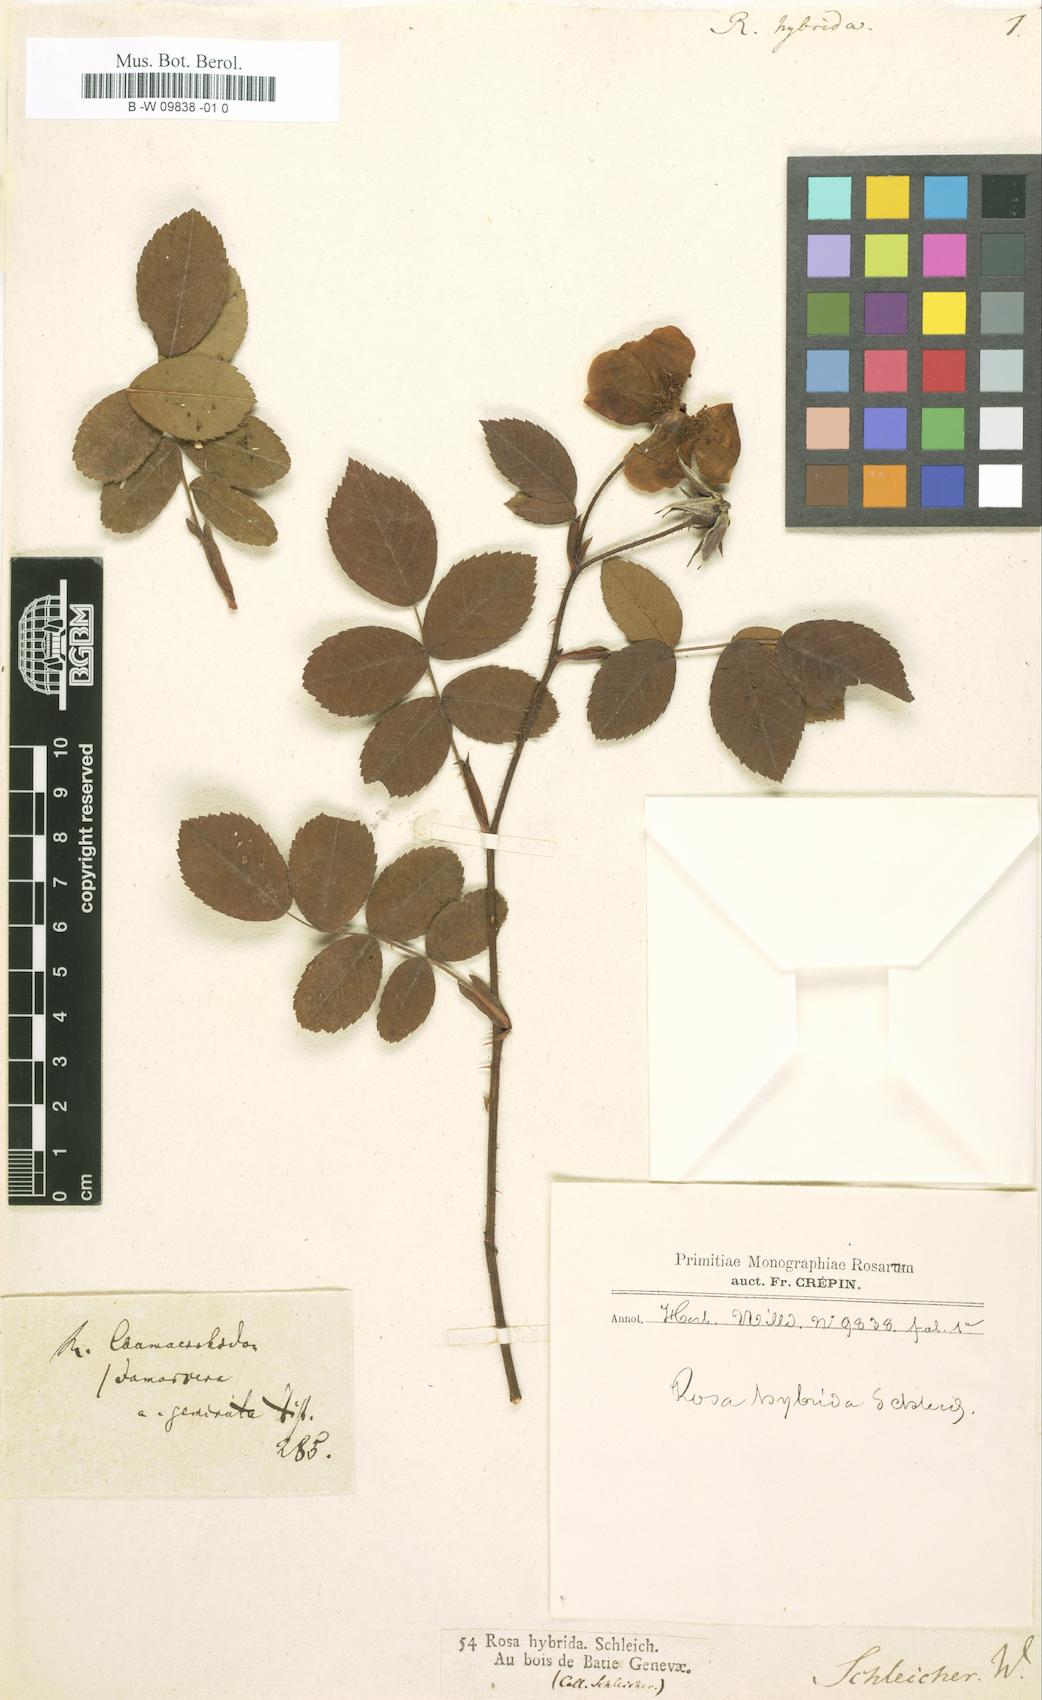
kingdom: Plantae
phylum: Tracheophyta
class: Magnoliopsida
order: Rosales
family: Rosaceae
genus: Rosa
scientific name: Rosa
